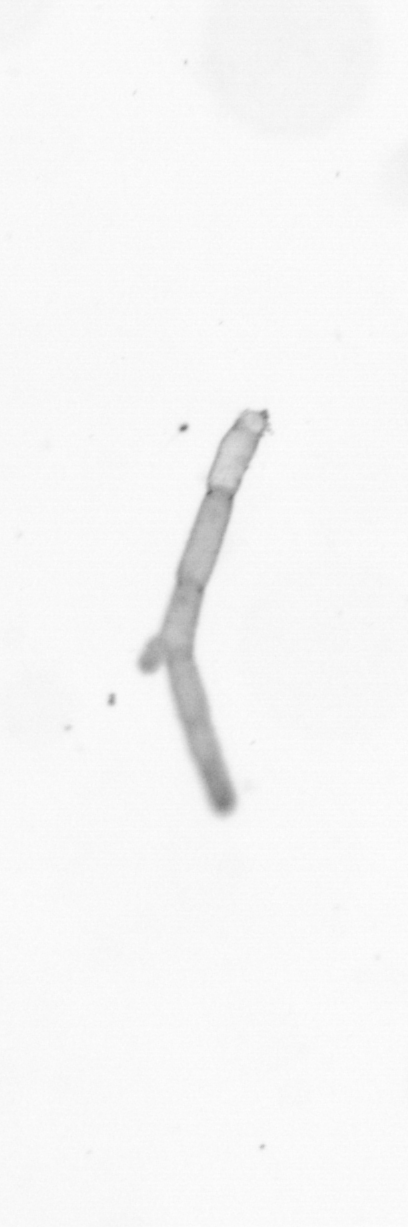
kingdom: Chromista
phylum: Ochrophyta
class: Bacillariophyceae
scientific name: Bacillariophyceae
